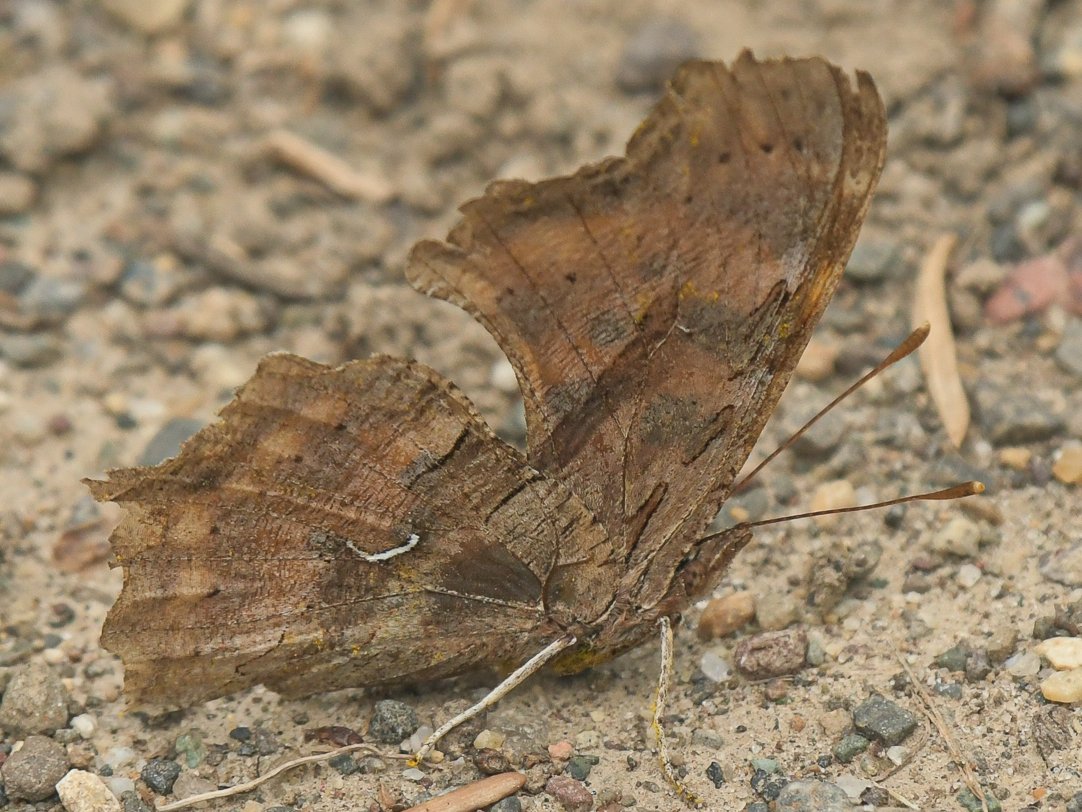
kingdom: Animalia
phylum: Arthropoda
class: Insecta
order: Lepidoptera
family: Nymphalidae
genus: Polygonia
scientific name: Polygonia satyrus
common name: Satyr Comma
